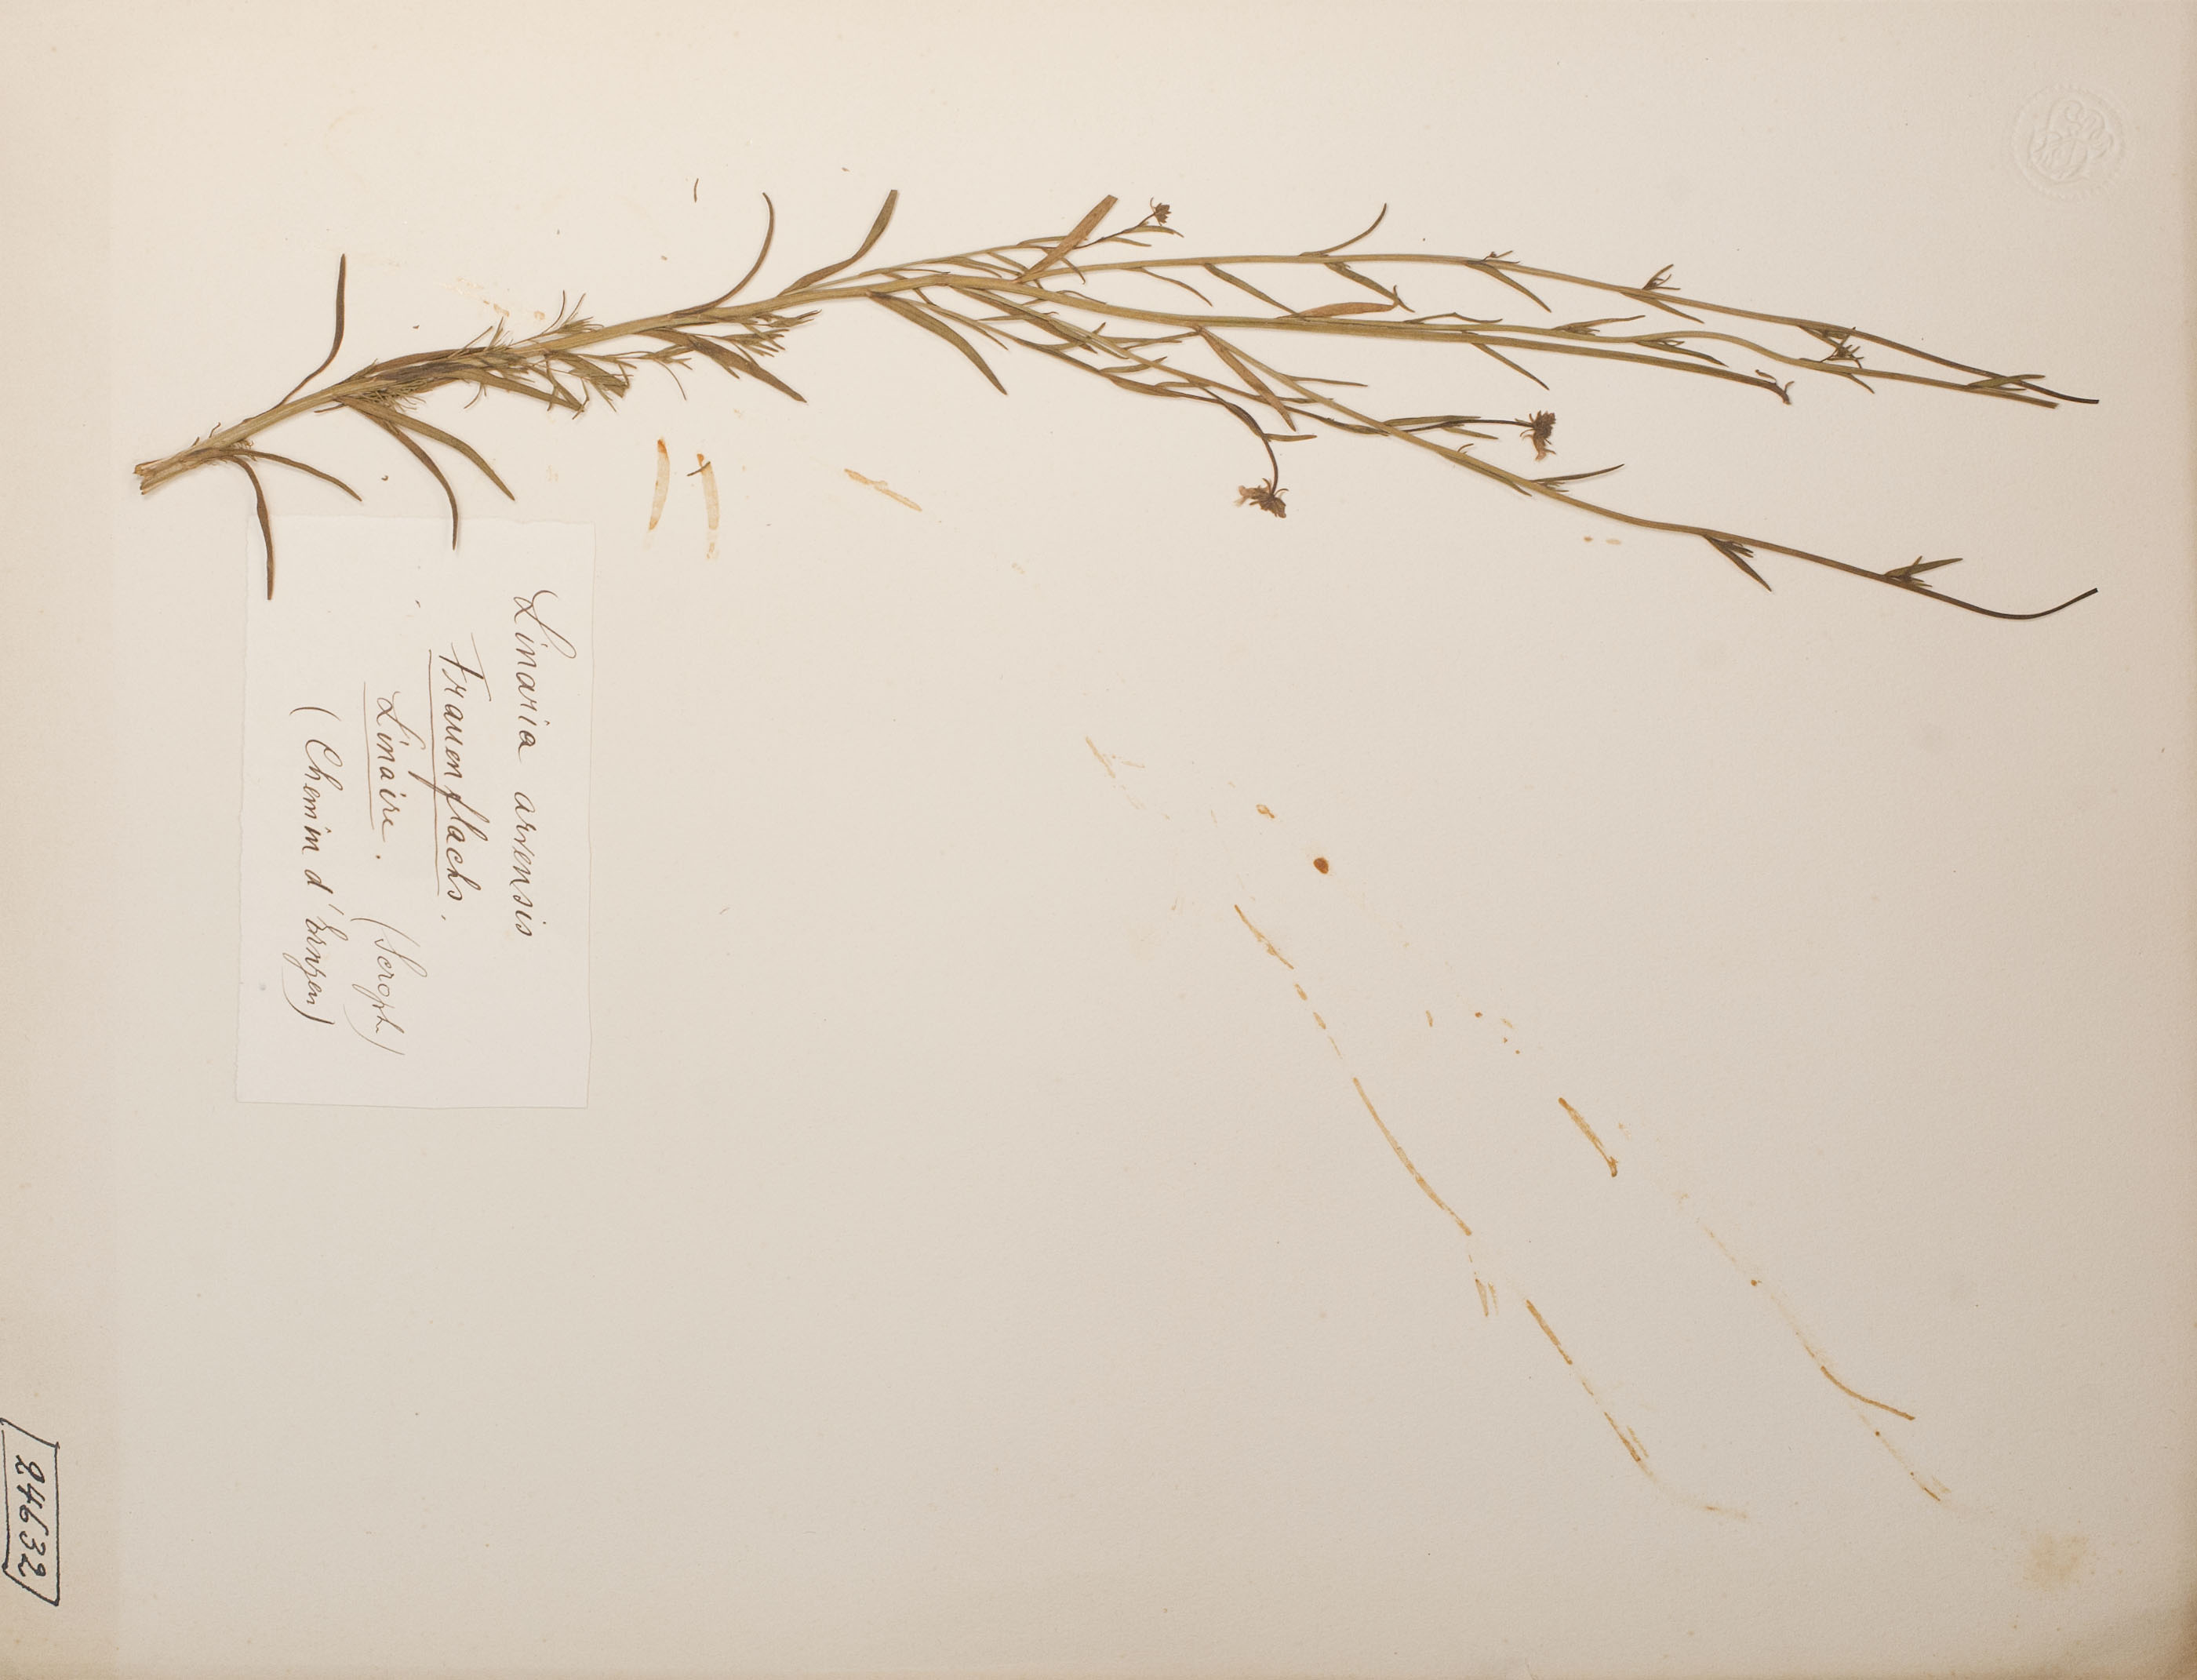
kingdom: Plantae
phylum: Tracheophyta
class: Magnoliopsida
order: Lamiales
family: Plantaginaceae
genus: Linaria
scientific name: Linaria arvensis
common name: Corn toadflax
